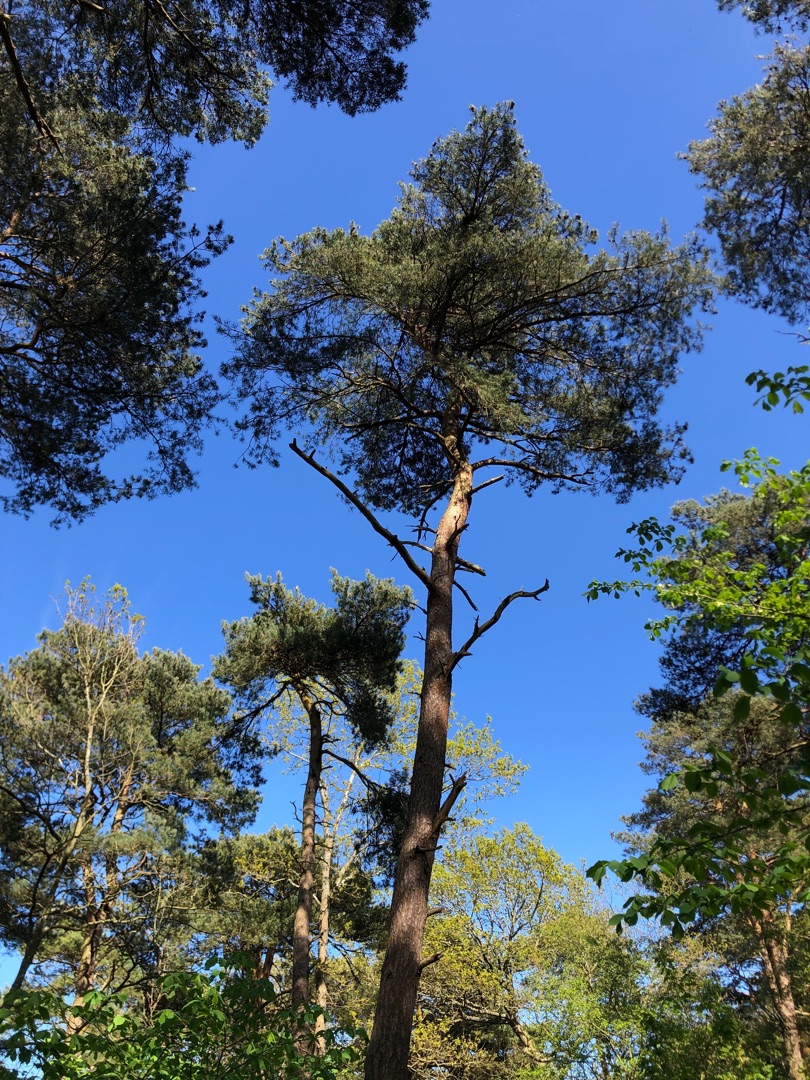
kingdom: Plantae
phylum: Tracheophyta
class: Pinopsida
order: Pinales
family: Pinaceae
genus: Pinus
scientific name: Pinus sylvestris
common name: Skov-fyr
